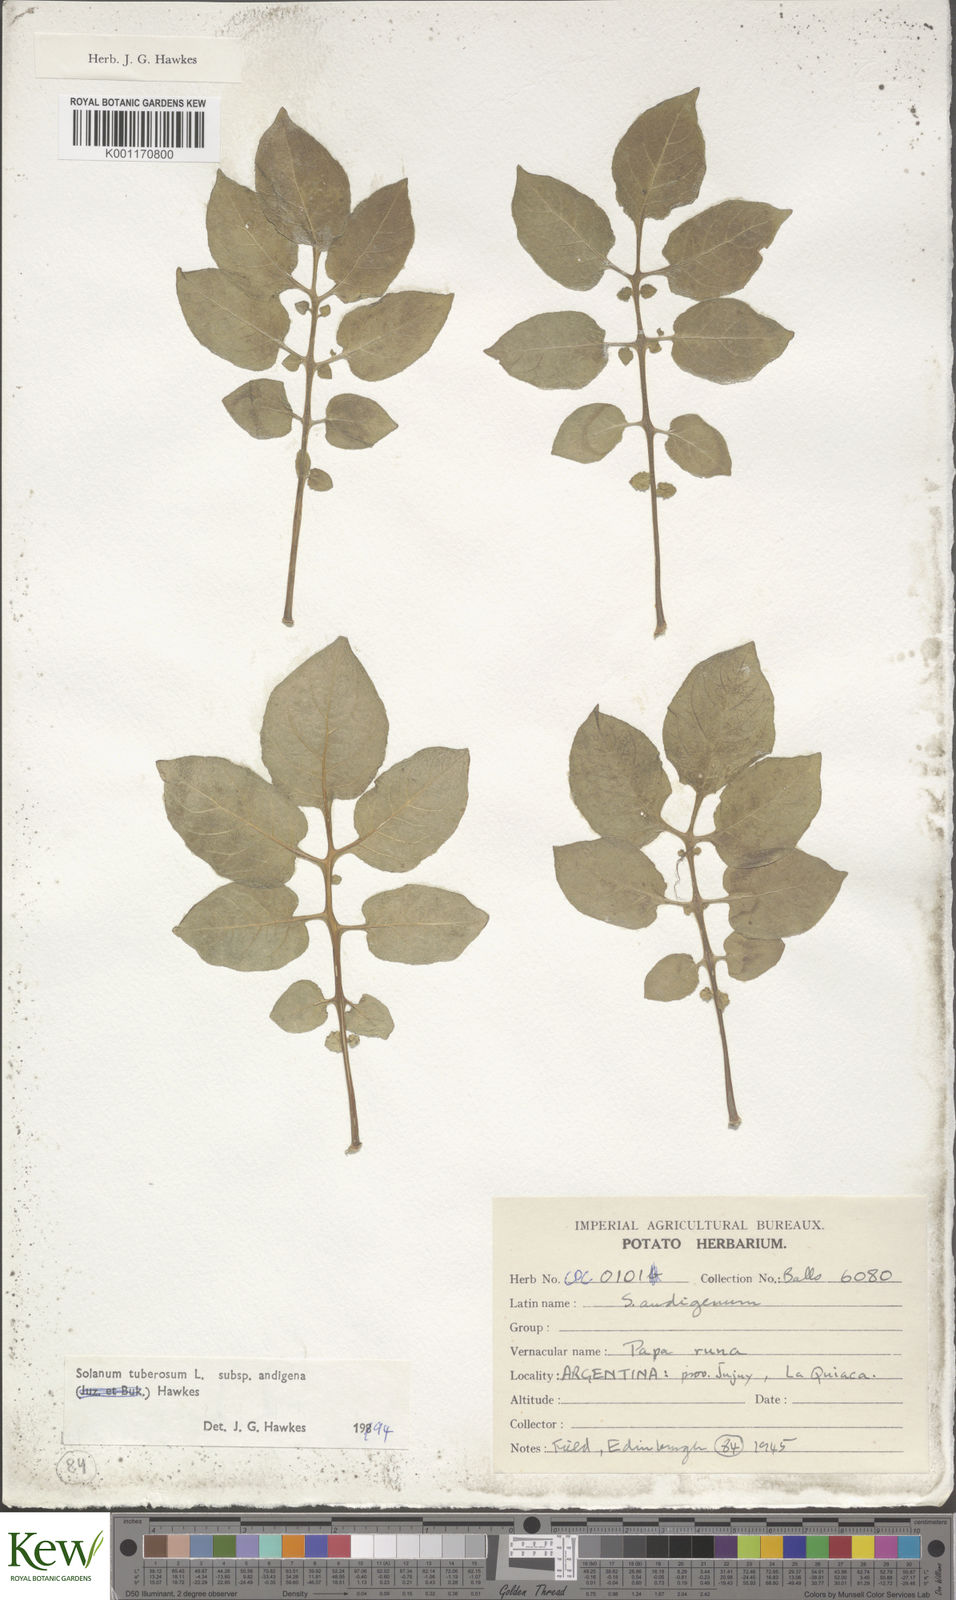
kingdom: Plantae
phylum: Tracheophyta
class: Magnoliopsida
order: Solanales
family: Solanaceae
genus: Solanum
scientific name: Solanum tuberosum
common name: Potato
